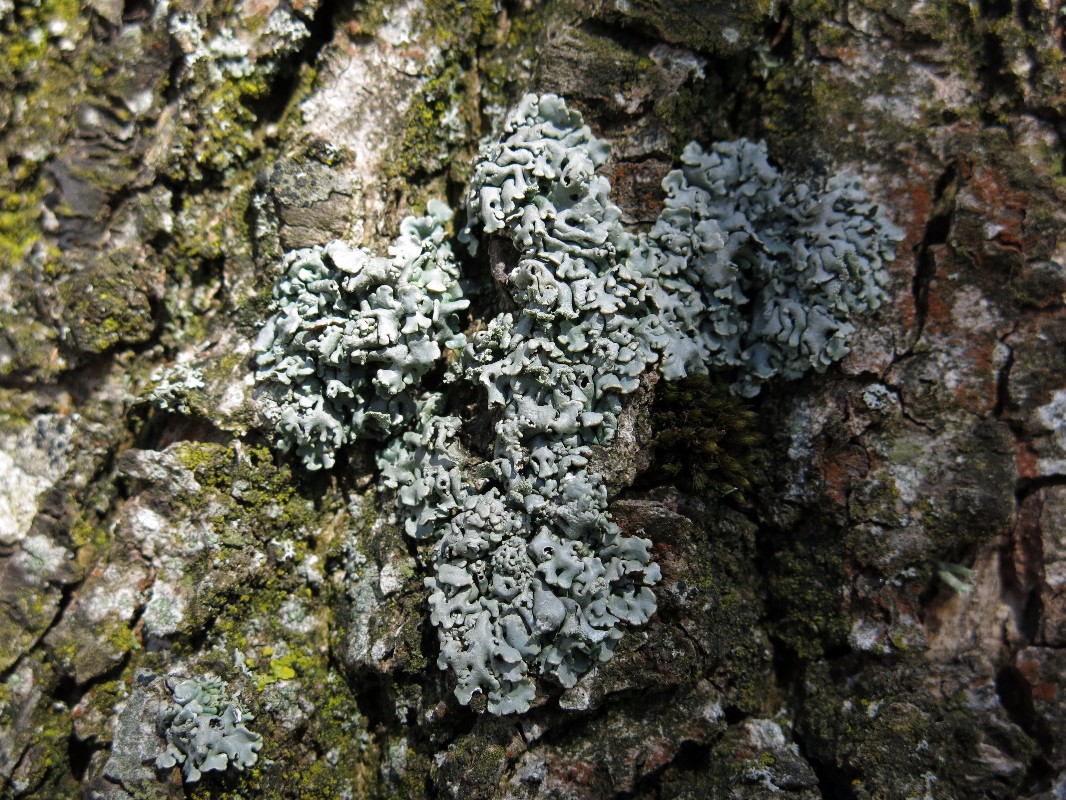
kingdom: Fungi
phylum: Ascomycota
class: Lecanoromycetes
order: Lecanorales
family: Parmeliaceae
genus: Hypogymnia
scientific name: Hypogymnia physodes
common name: almindelig kvistlav
